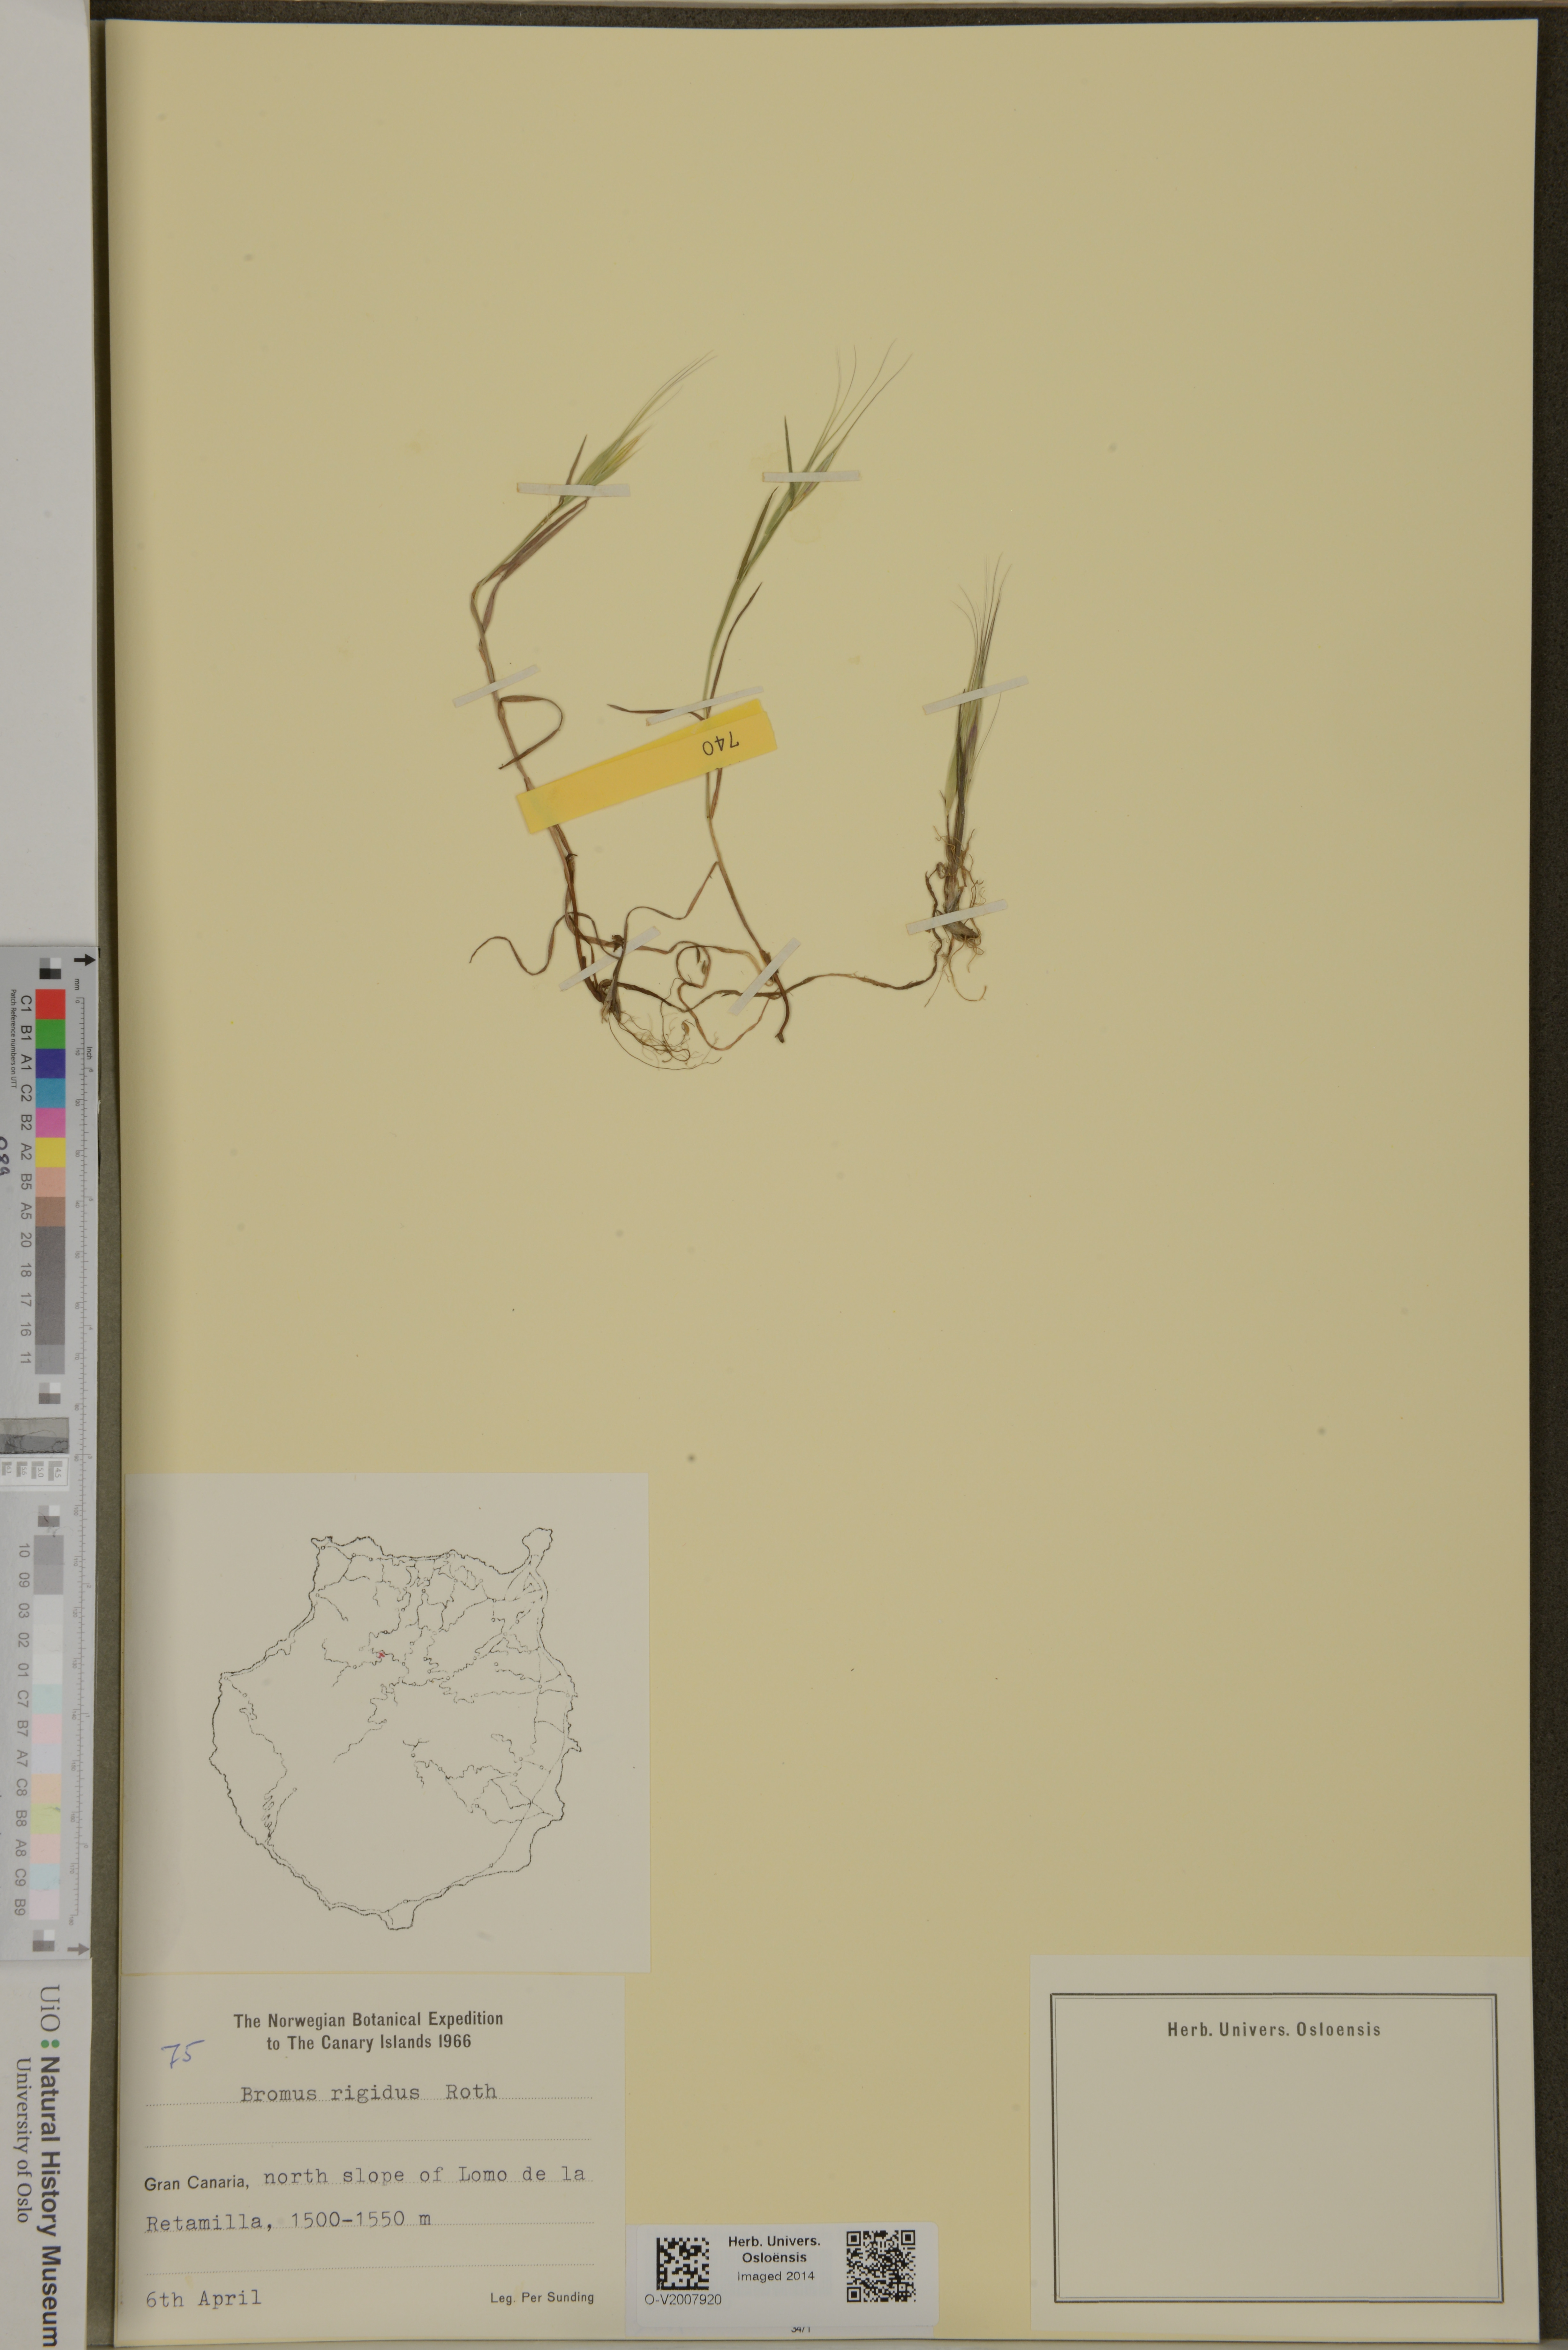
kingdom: Plantae
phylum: Tracheophyta
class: Liliopsida
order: Poales
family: Poaceae
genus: Bromus
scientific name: Bromus rigidus
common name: Ripgut brome
